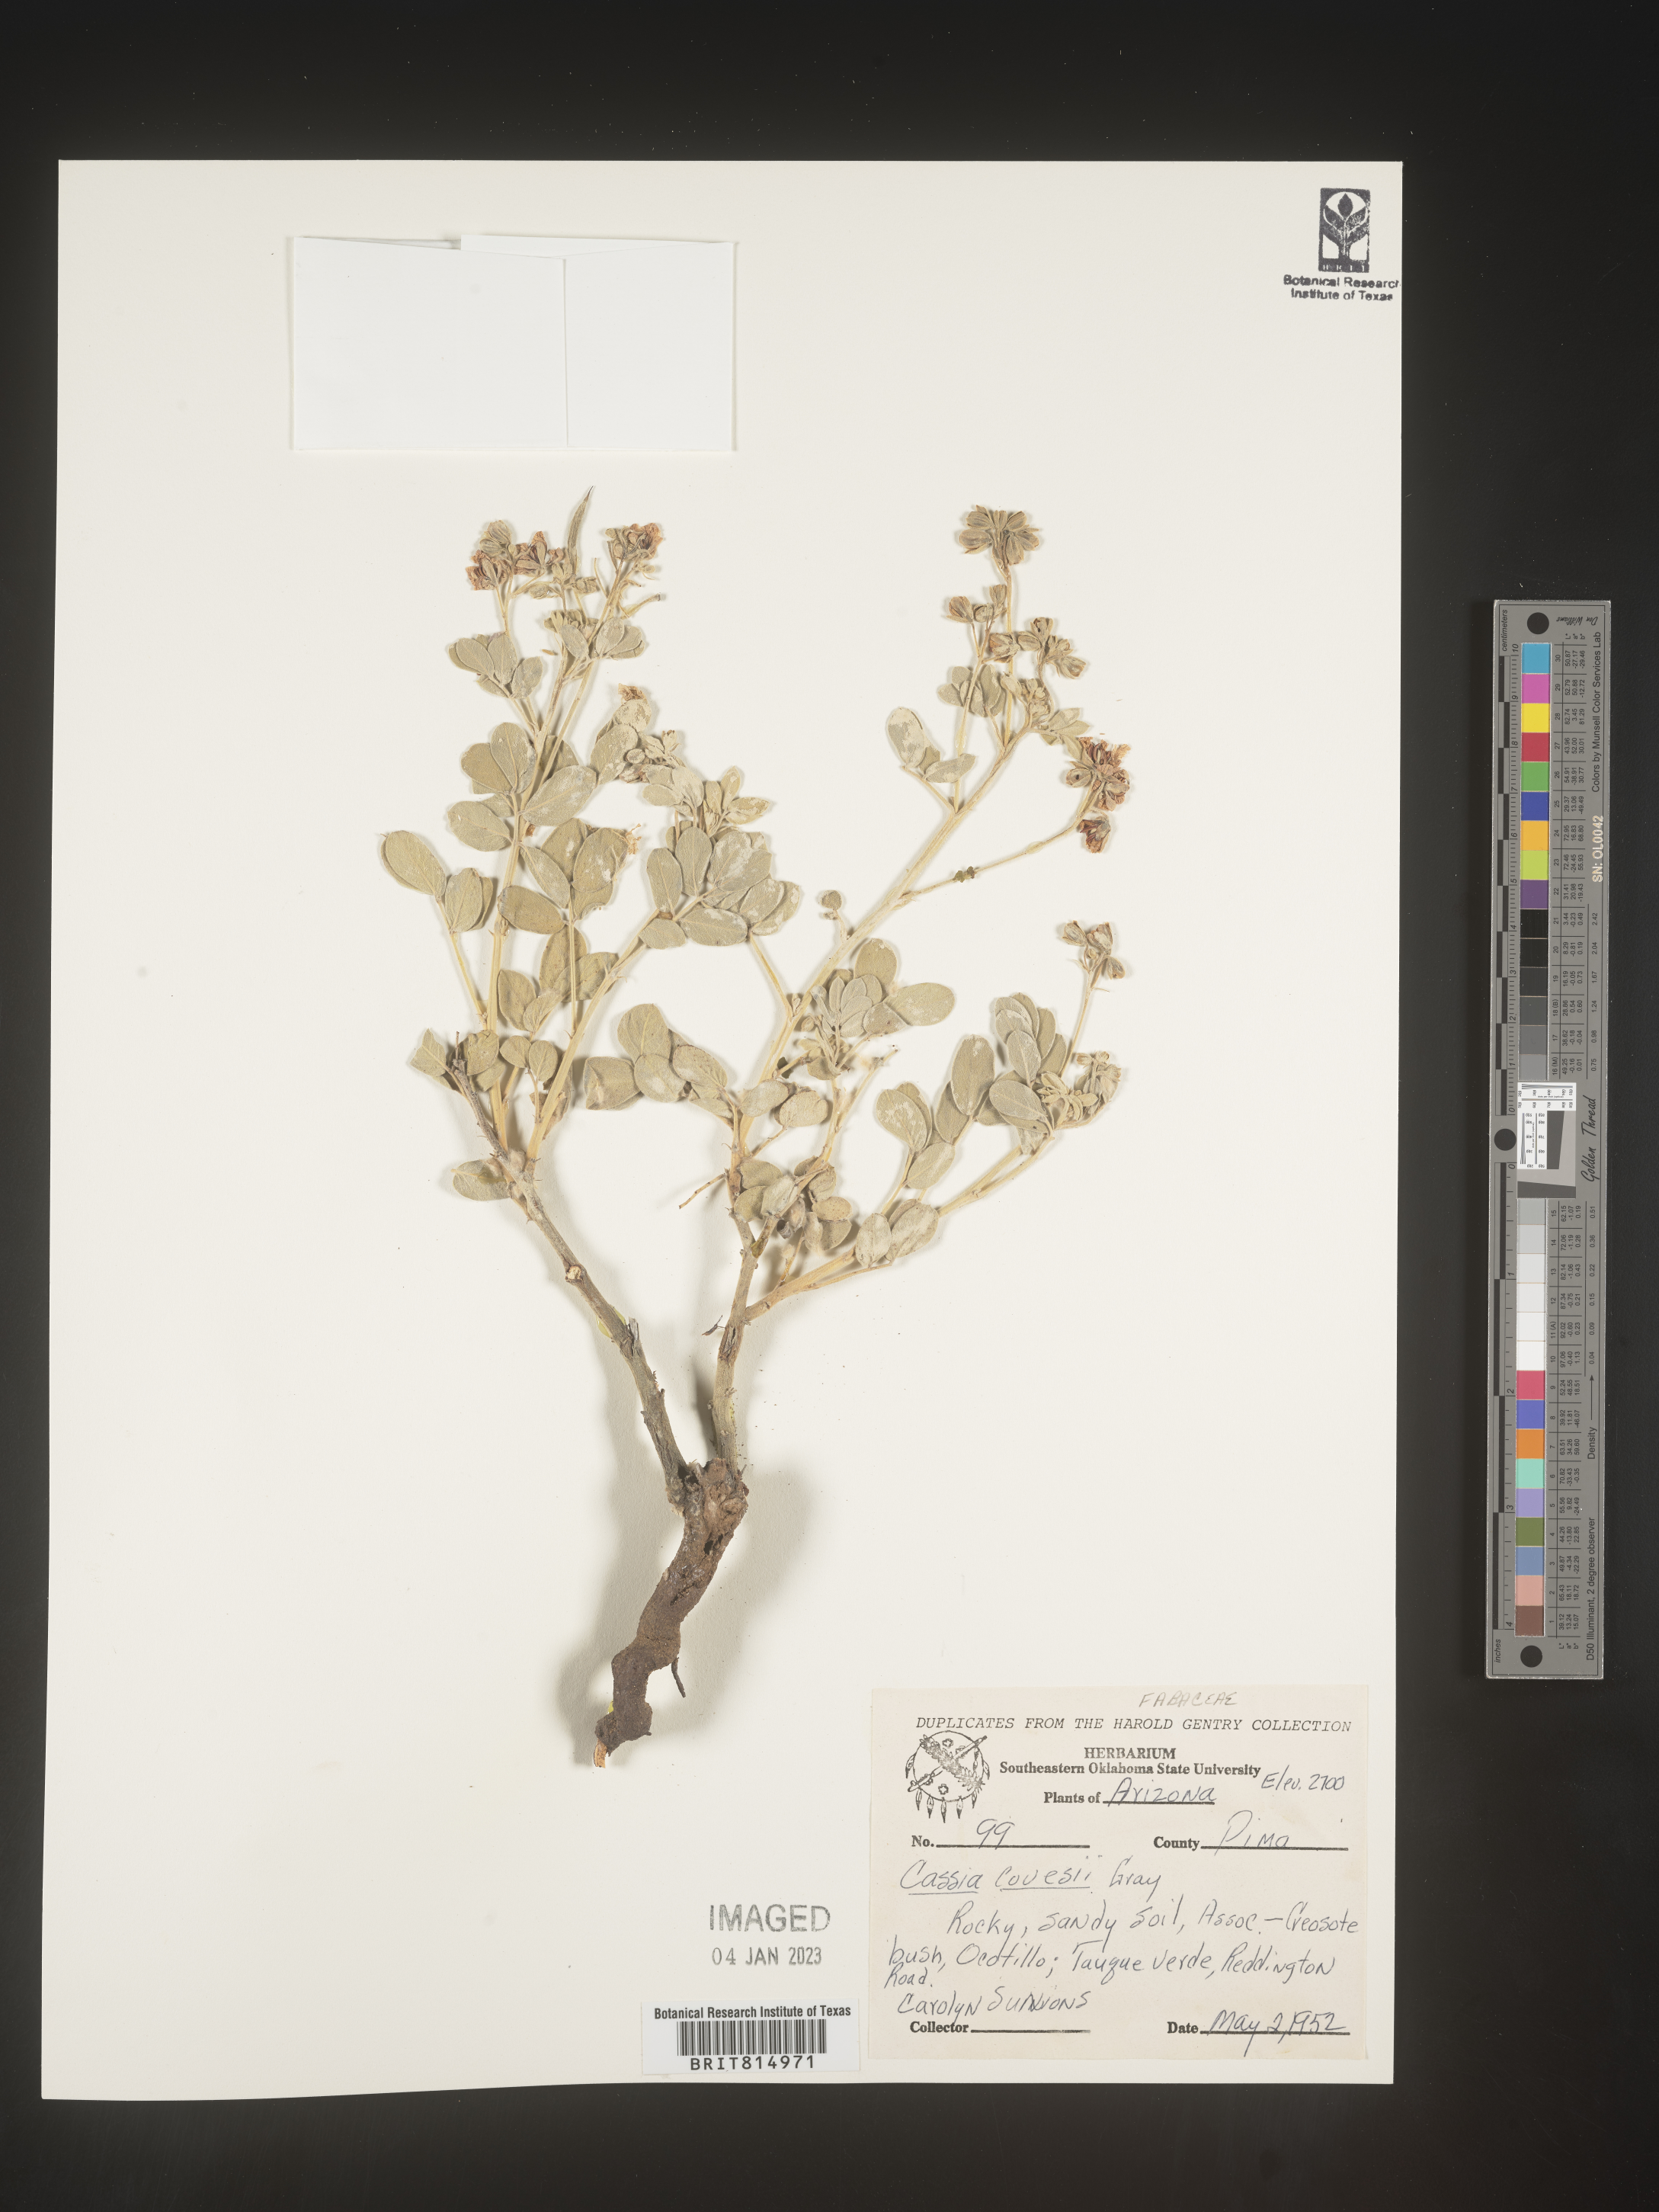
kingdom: Plantae
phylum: Tracheophyta
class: Magnoliopsida
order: Fabales
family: Fabaceae
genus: Cassia
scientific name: Cassia
